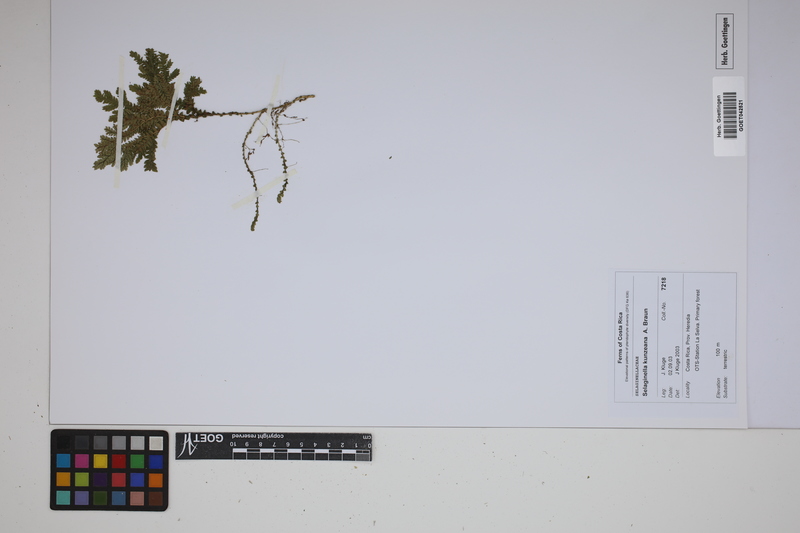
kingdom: Plantae
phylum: Tracheophyta
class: Lycopodiopsida
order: Selaginellales
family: Selaginellaceae
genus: Selaginella
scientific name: Selaginella kunzeana
